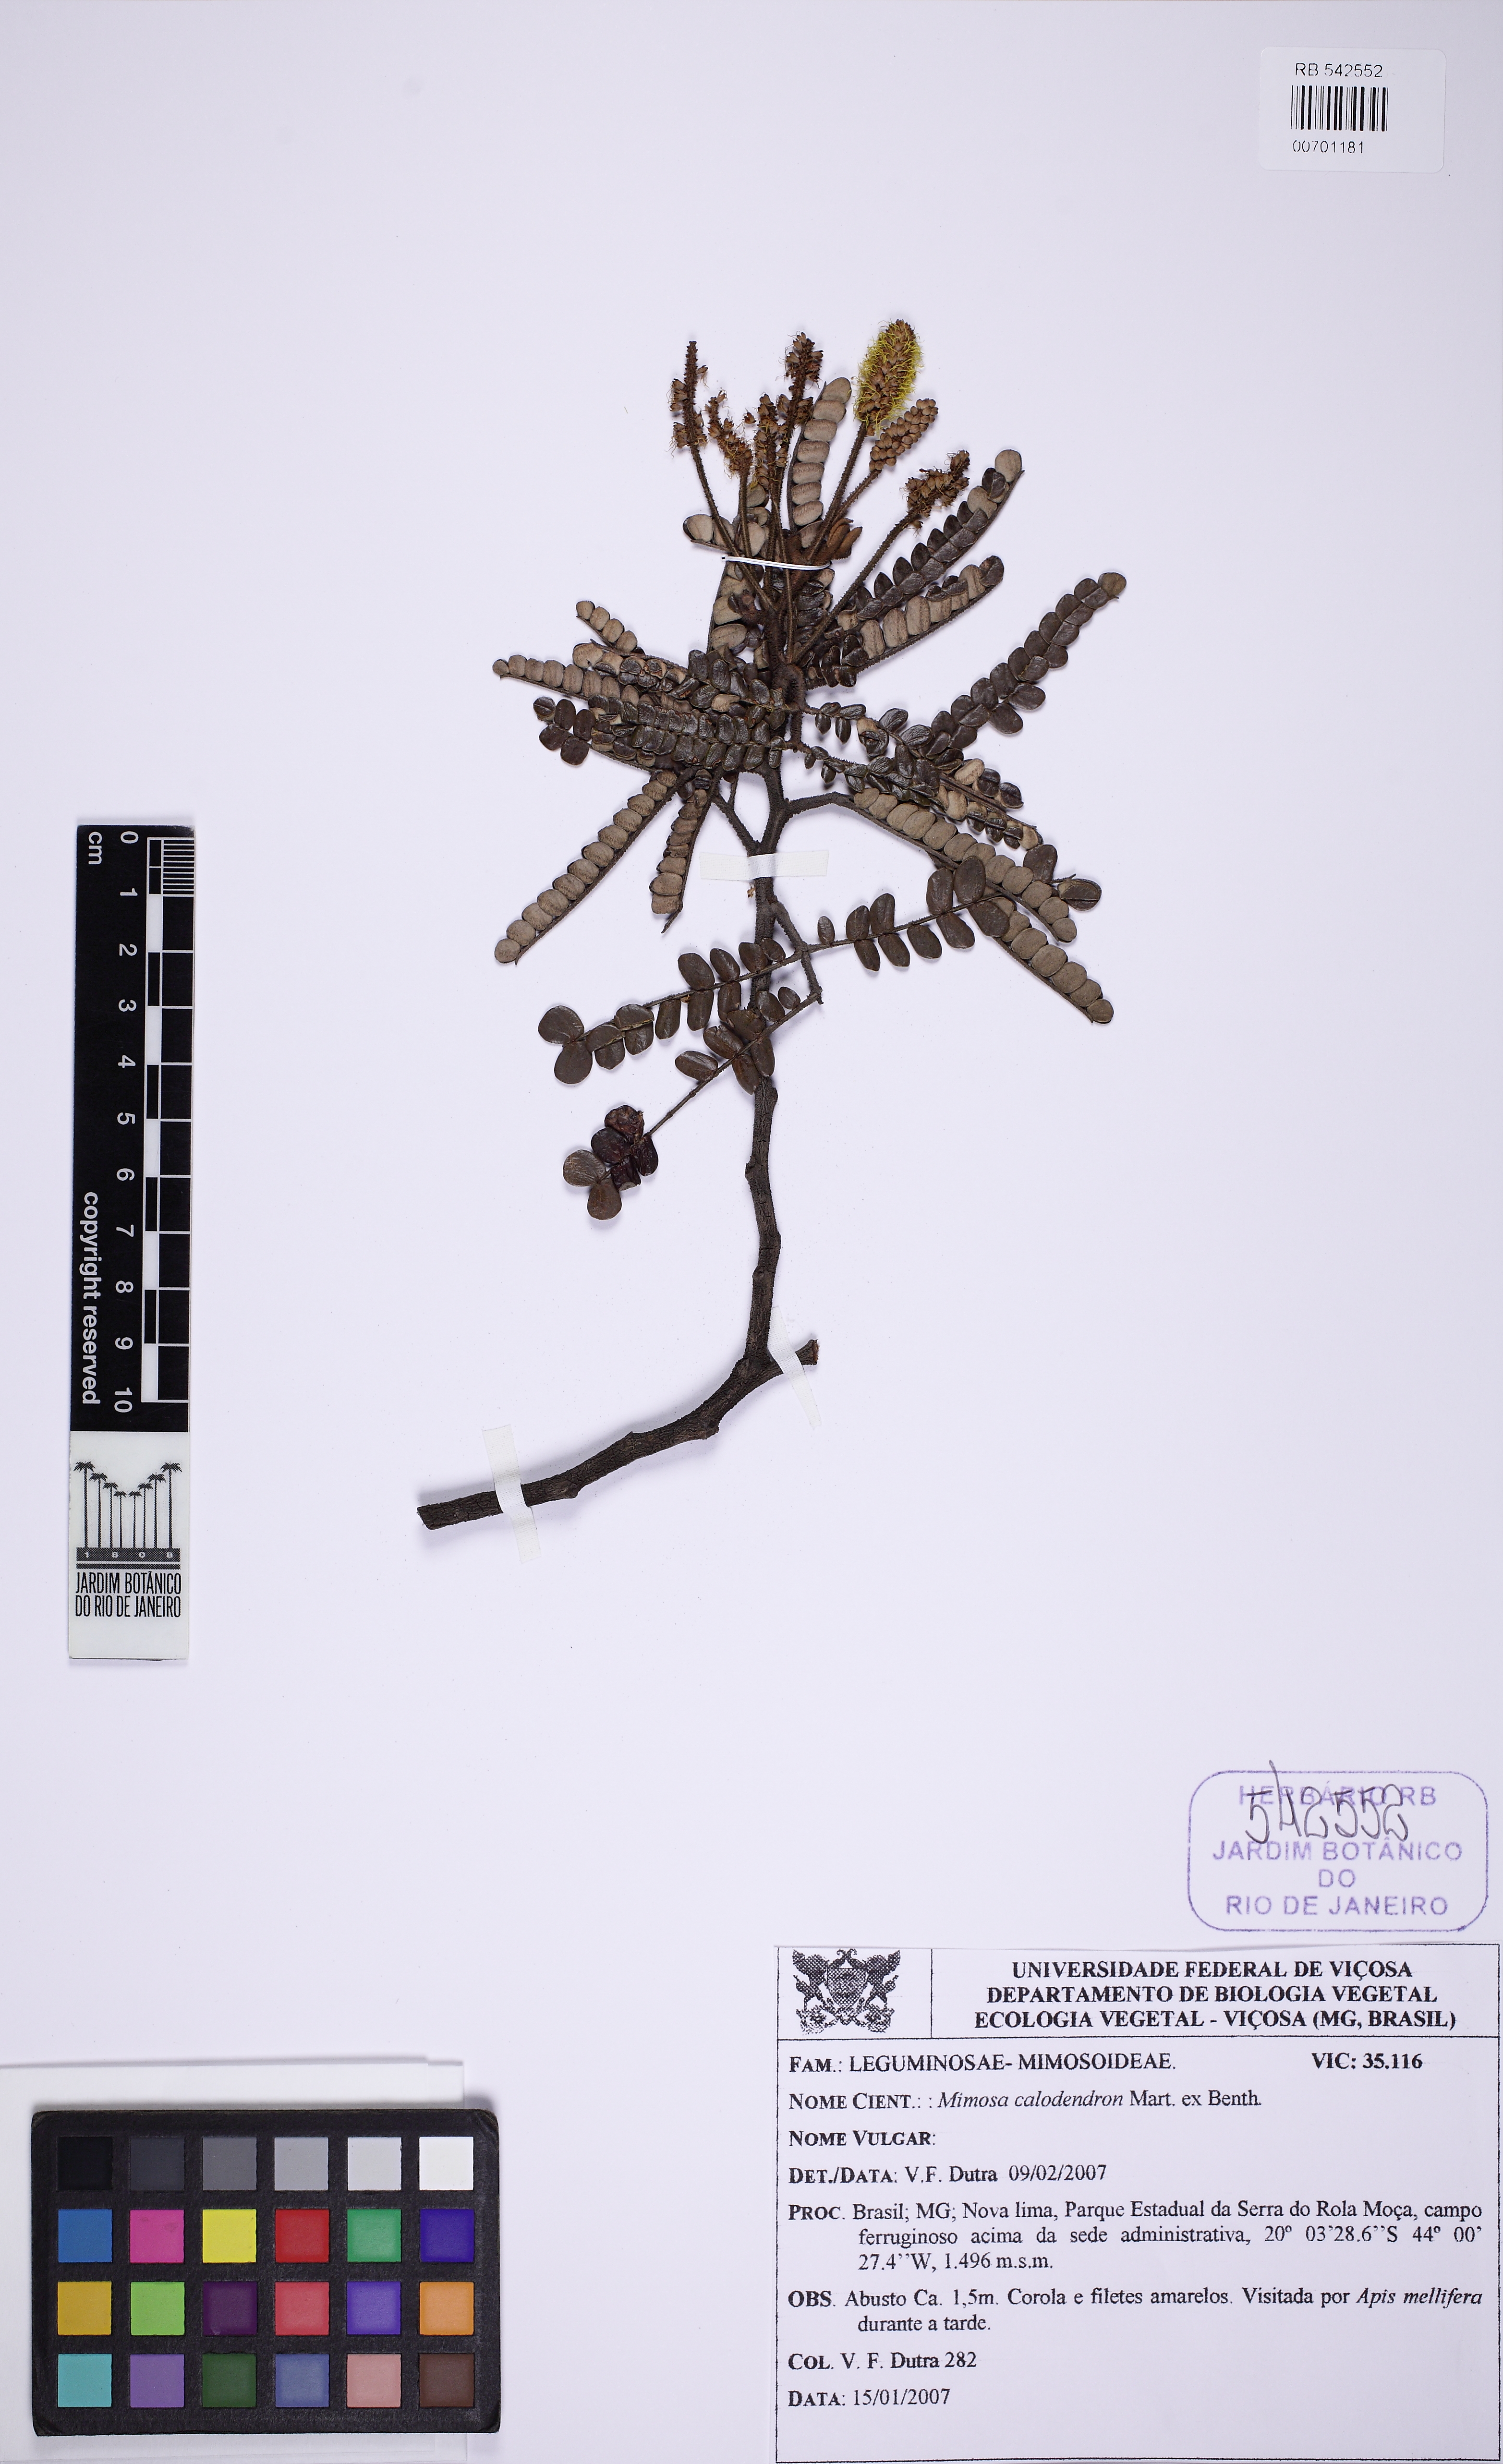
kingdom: Plantae
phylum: Tracheophyta
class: Magnoliopsida
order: Fabales
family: Fabaceae
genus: Mimosa
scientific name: Mimosa calodendron
